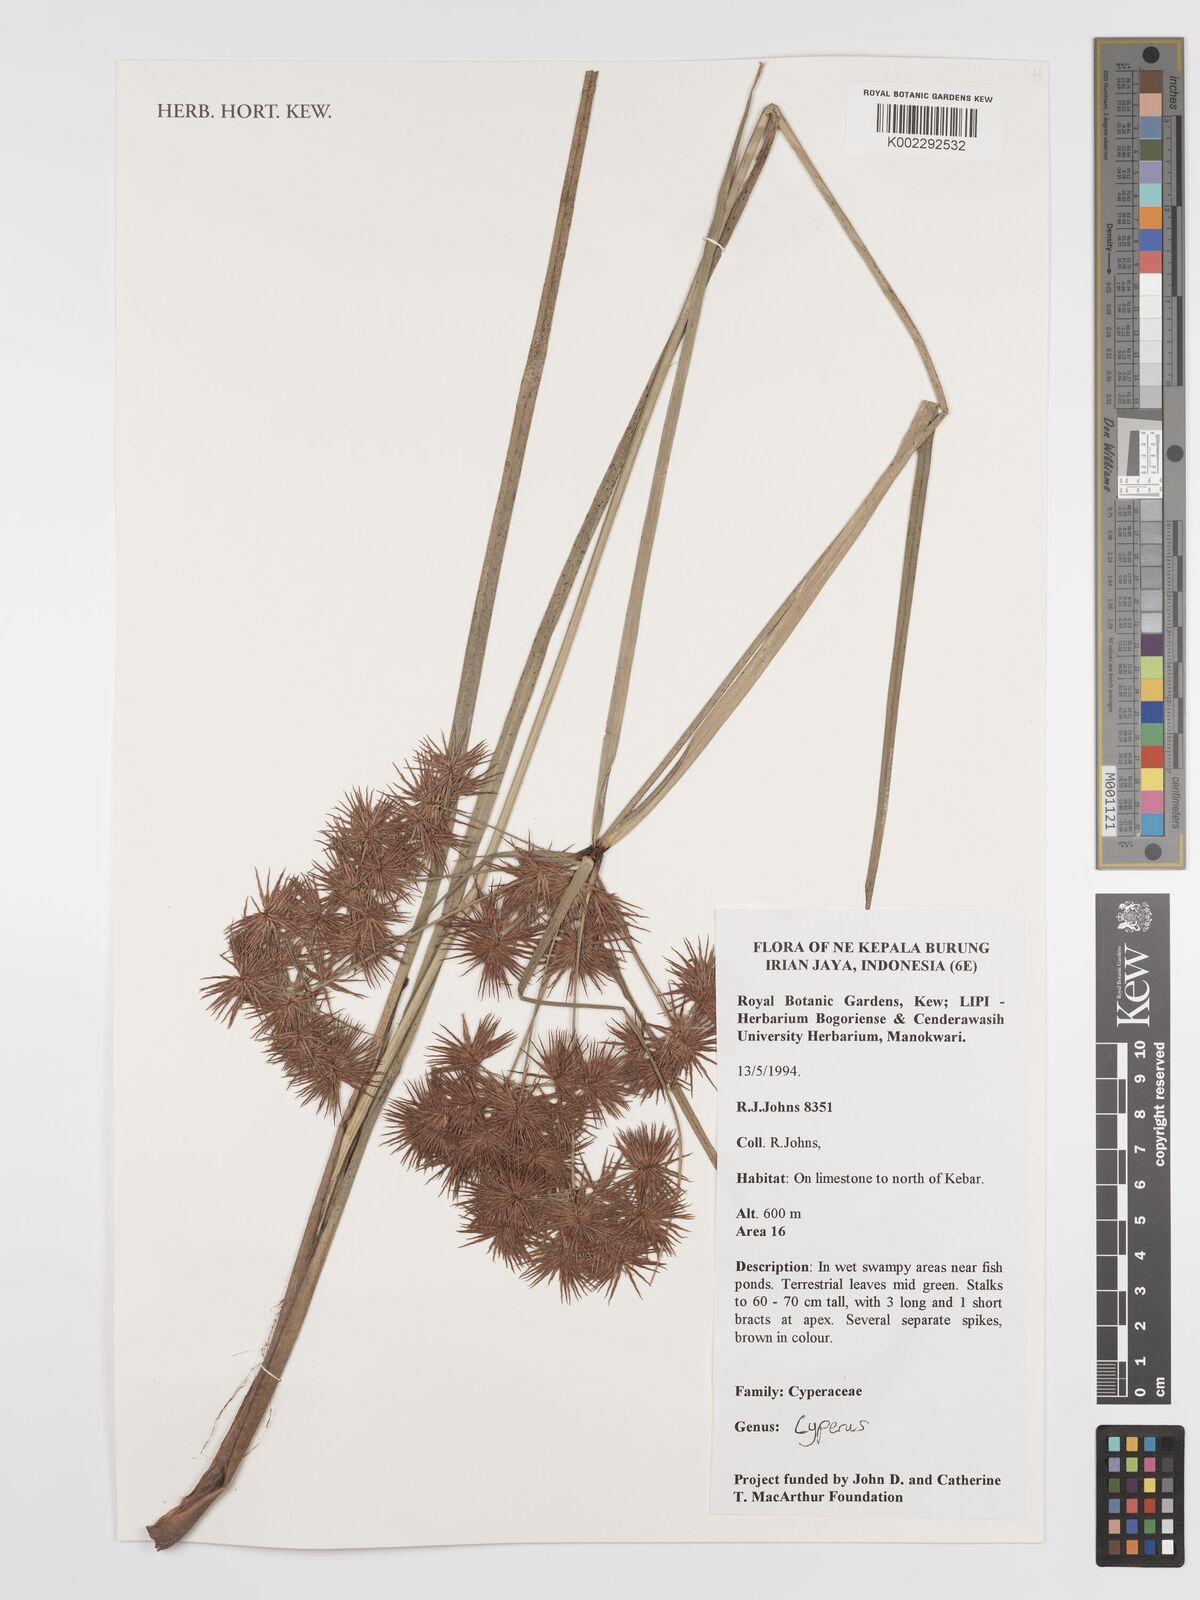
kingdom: Plantae
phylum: Tracheophyta
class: Liliopsida
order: Poales
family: Cyperaceae
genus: Cyperus
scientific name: Cyperus
